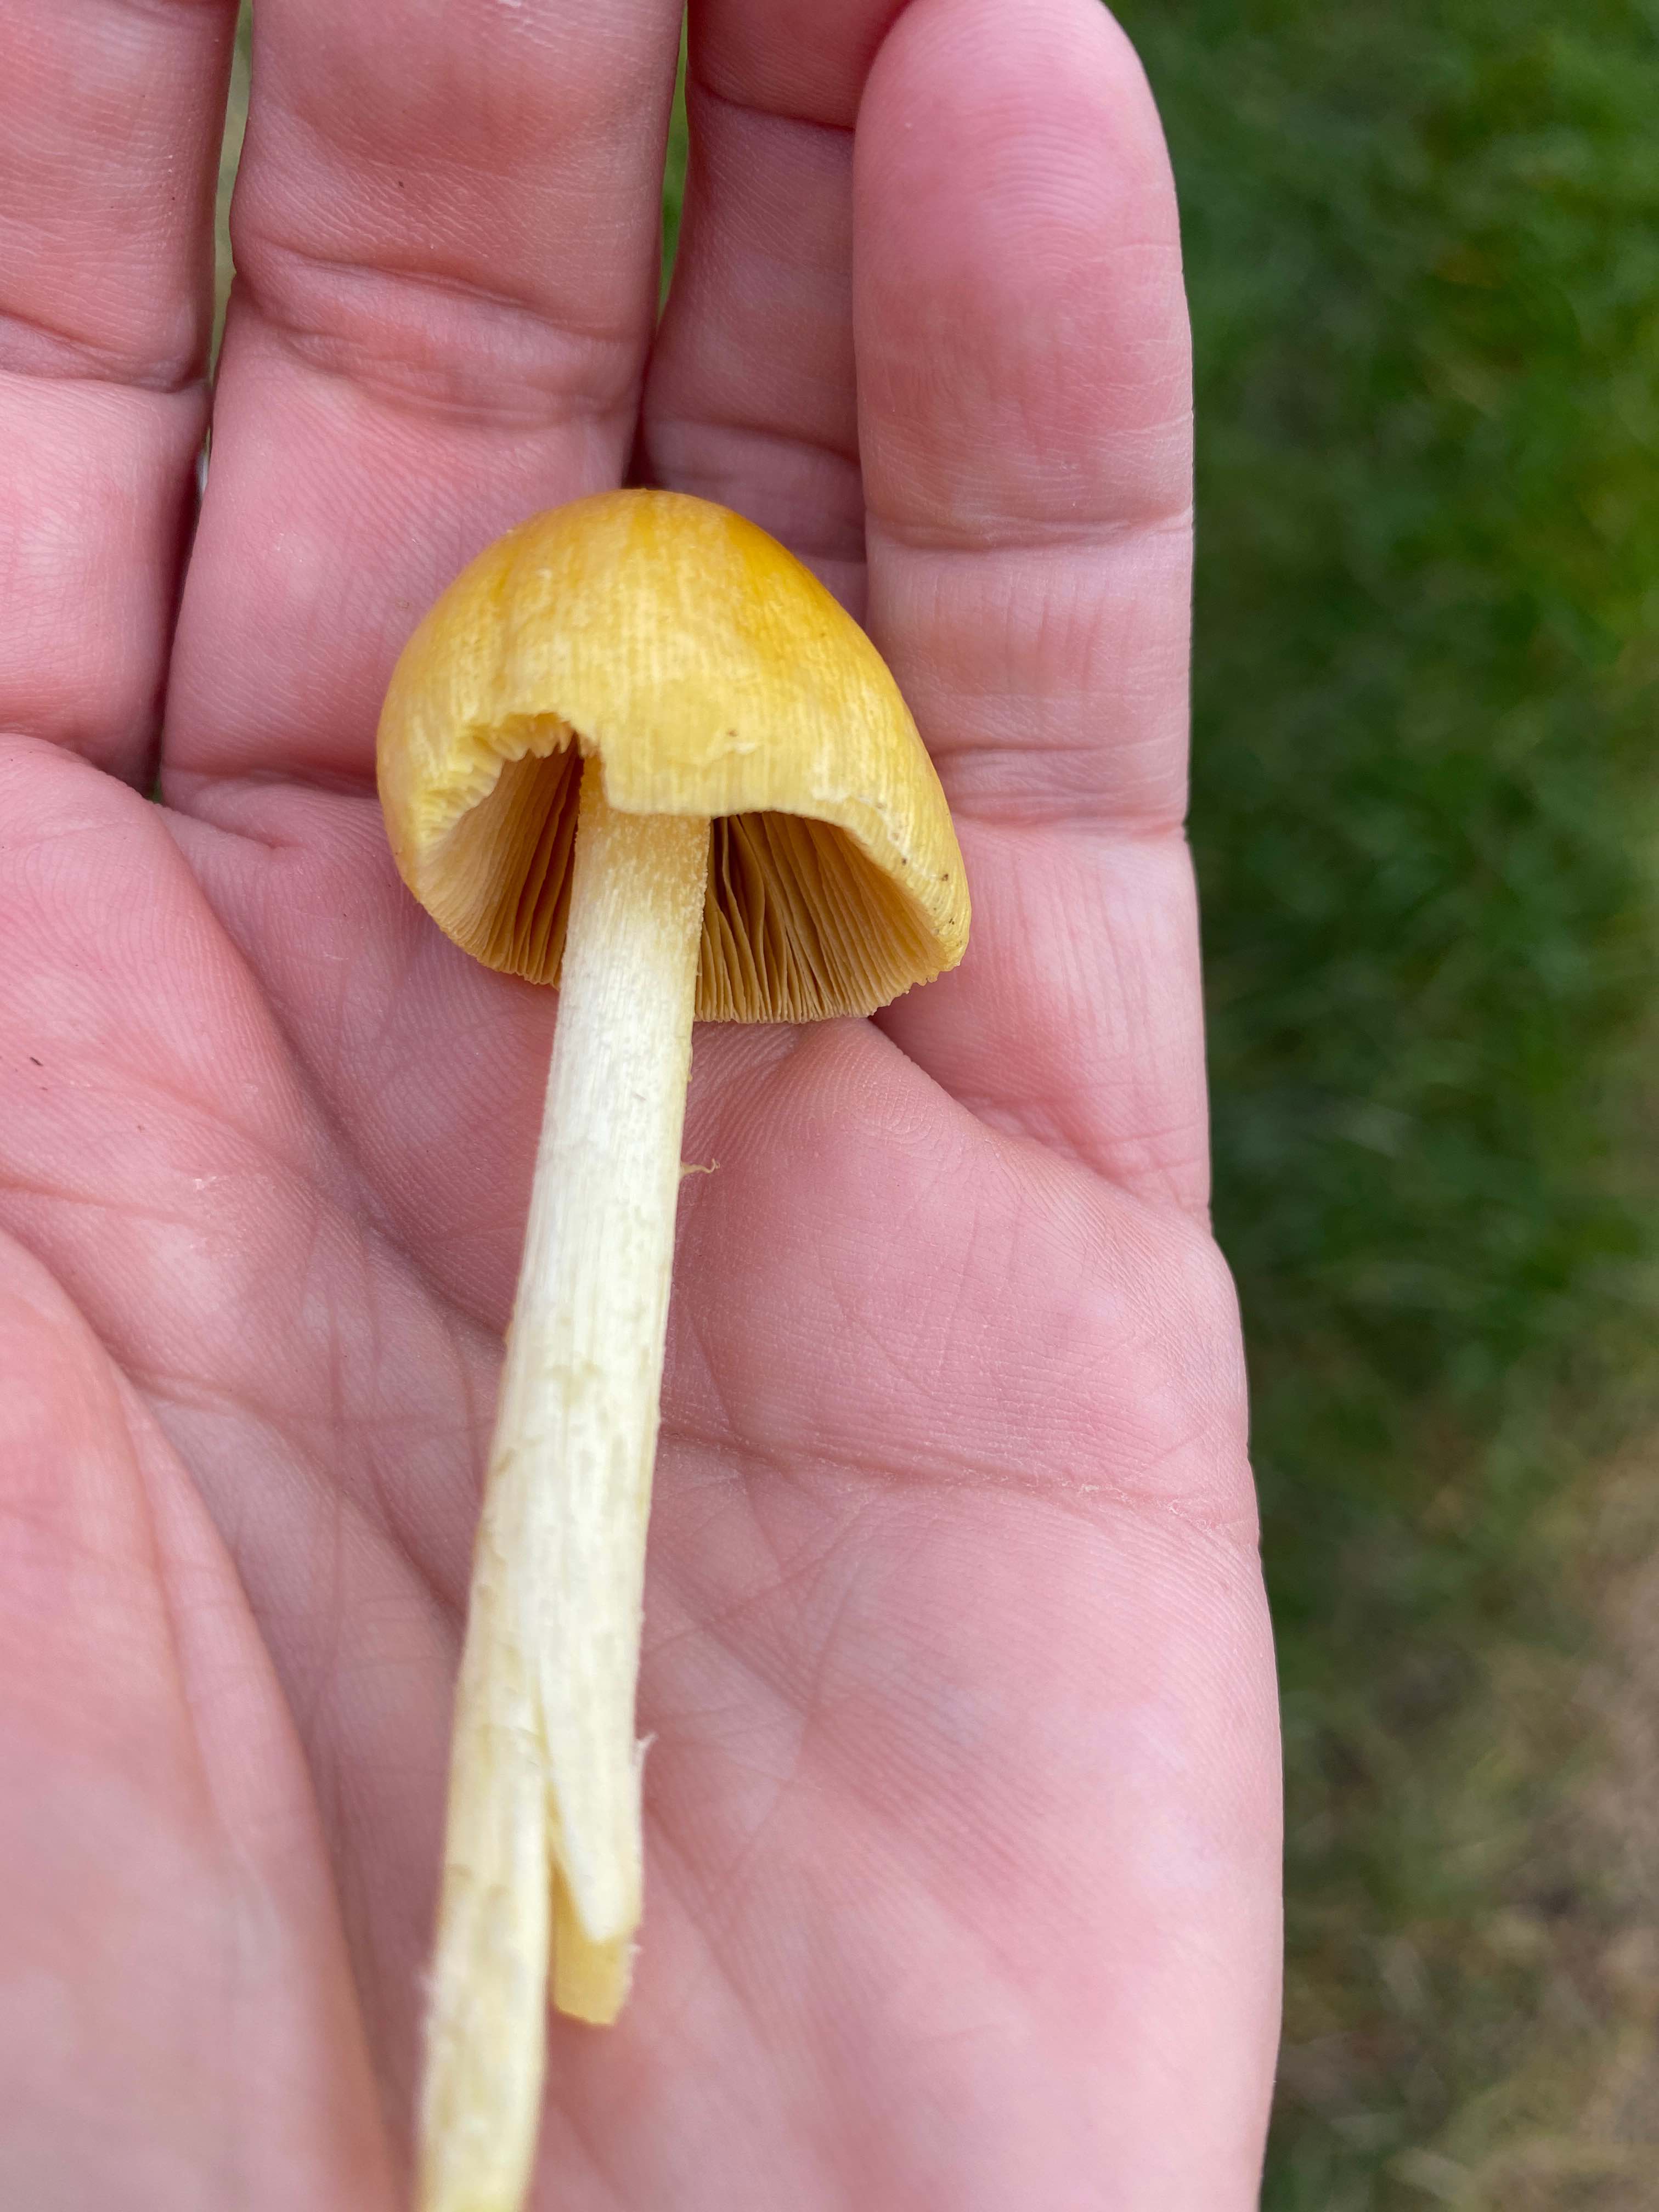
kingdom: Fungi
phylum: Basidiomycota
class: Agaricomycetes
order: Agaricales
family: Bolbitiaceae
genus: Bolbitius
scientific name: Bolbitius titubans
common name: almindelig gulhat
